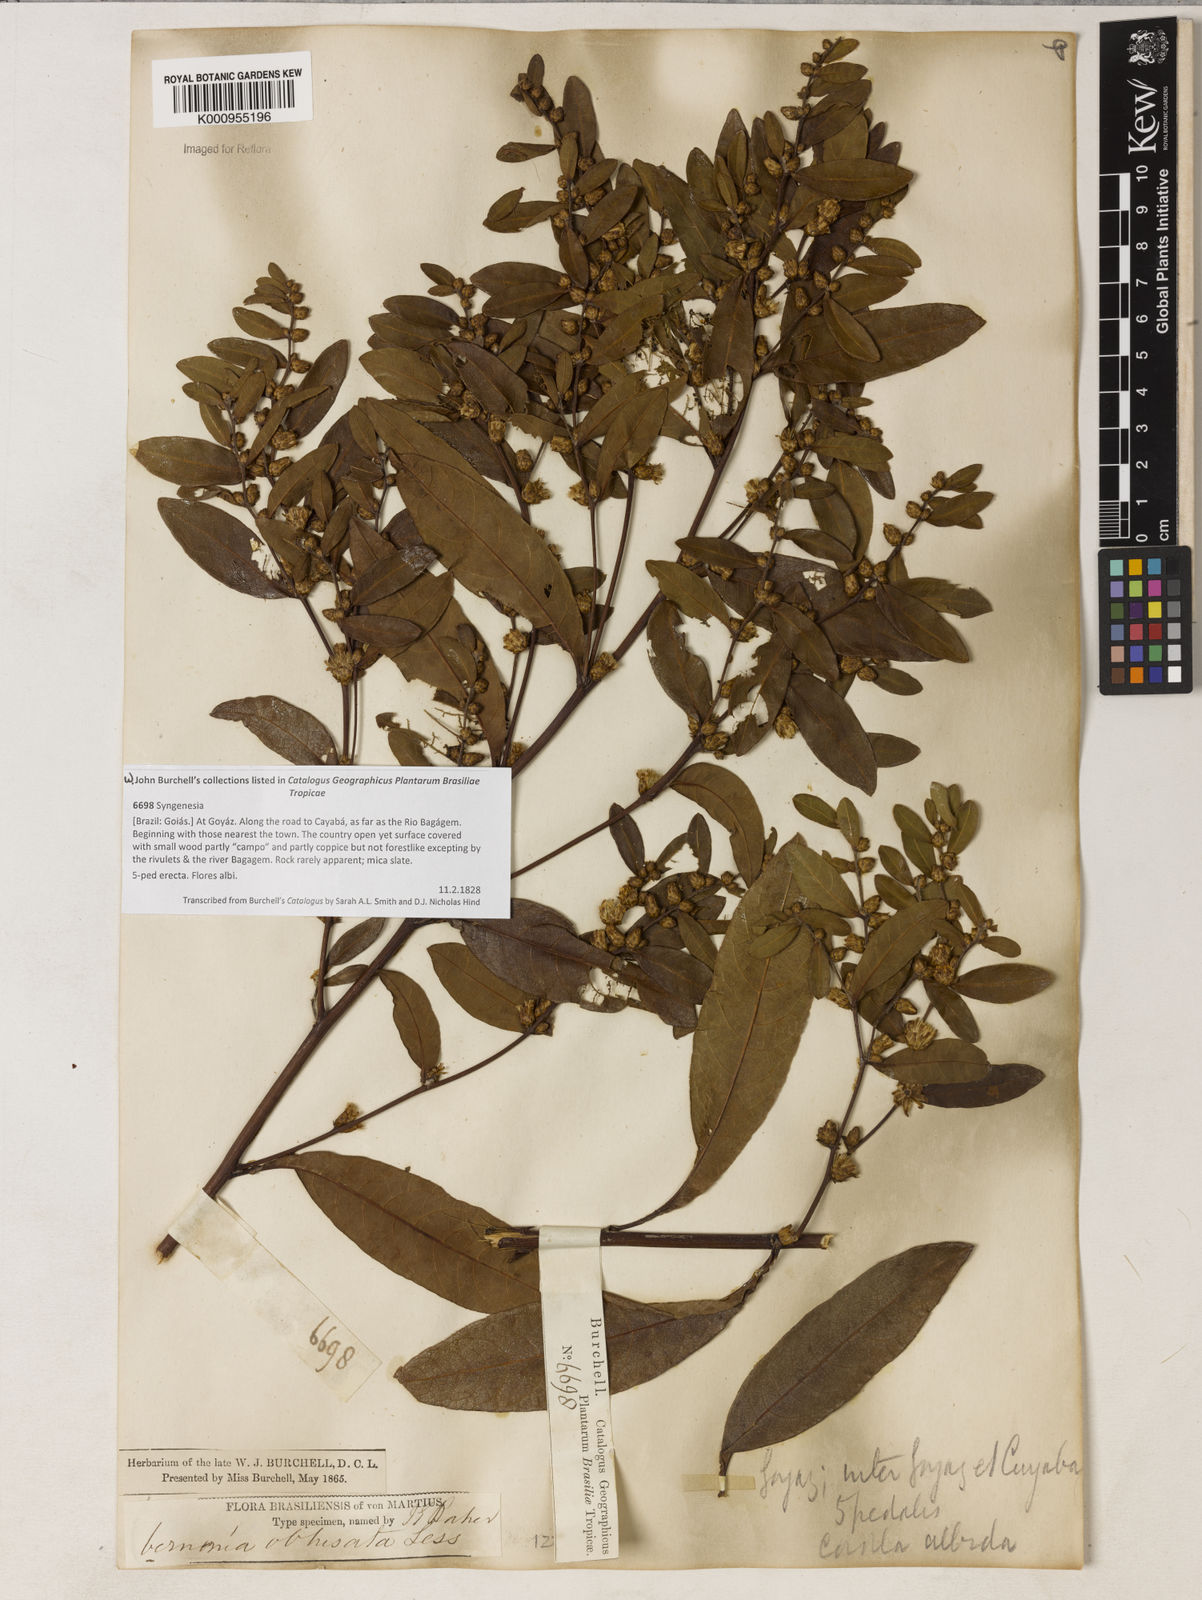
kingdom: Plantae
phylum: Tracheophyta
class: Magnoliopsida
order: Asterales
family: Asteraceae
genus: Lessingianthus
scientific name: Lessingianthus obtusatus
